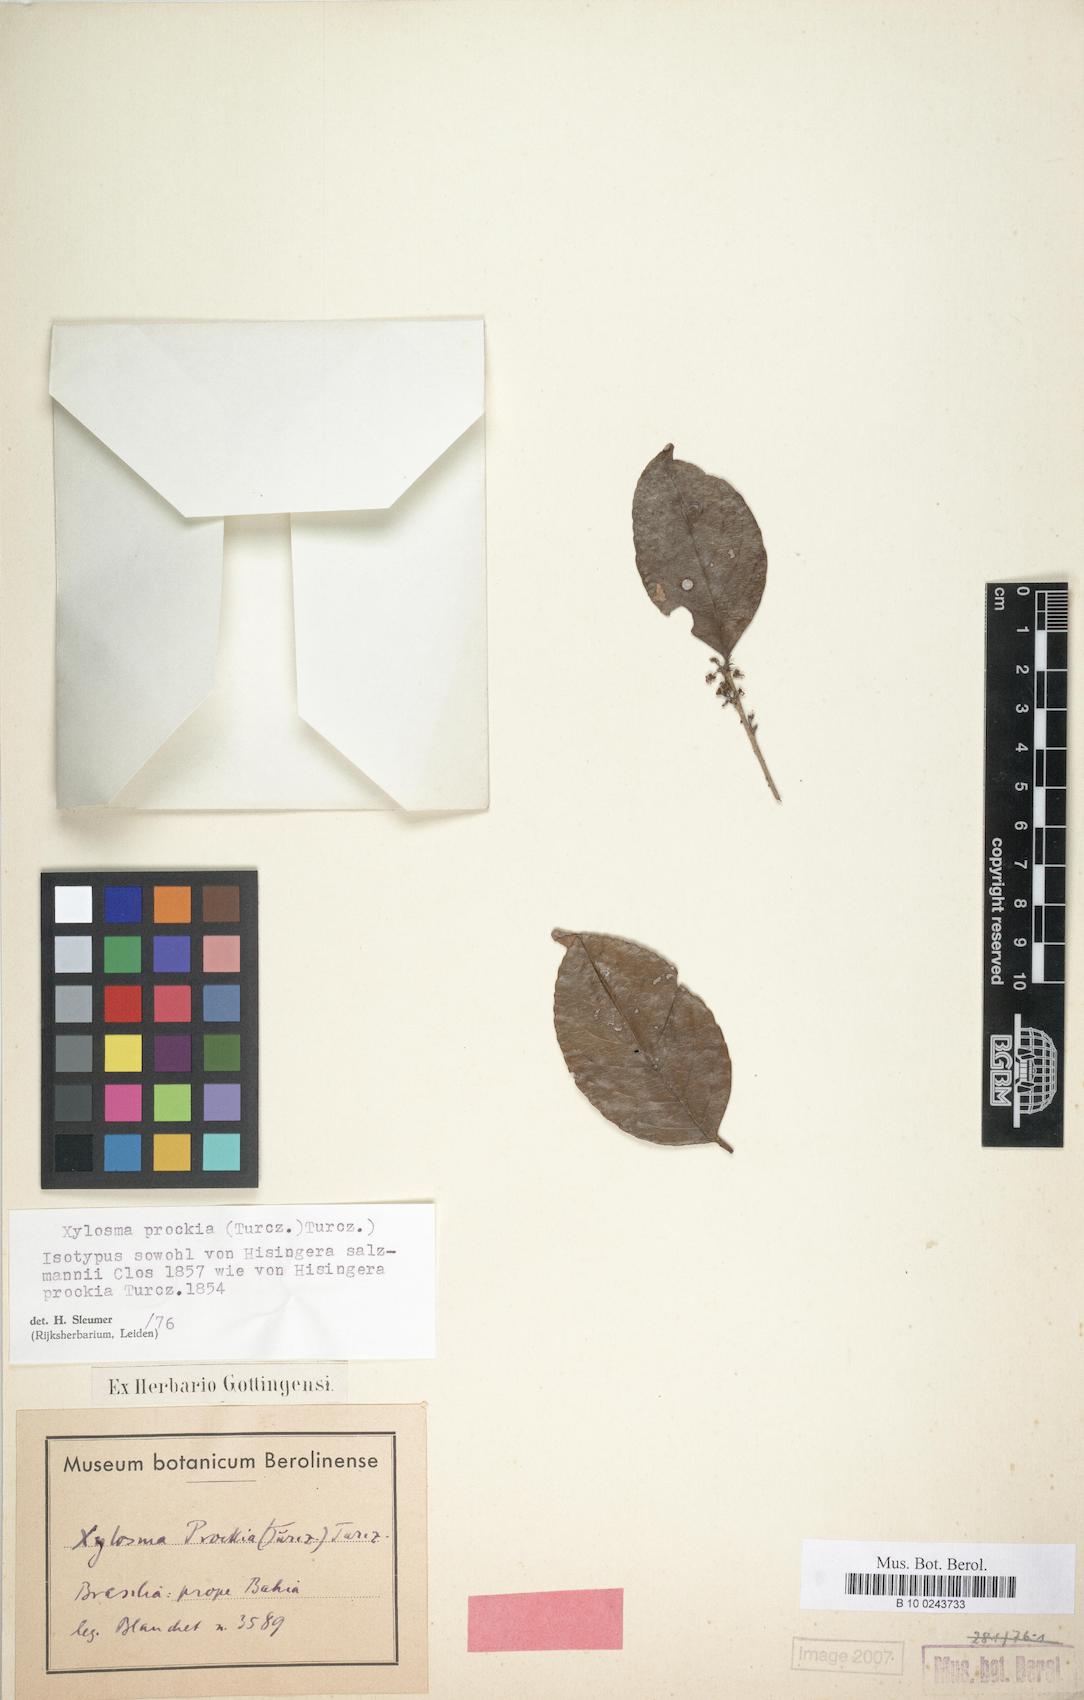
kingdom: Plantae
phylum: Tracheophyta
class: Magnoliopsida
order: Malpighiales
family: Salicaceae
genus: Xylosma
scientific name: Xylosma prockia
